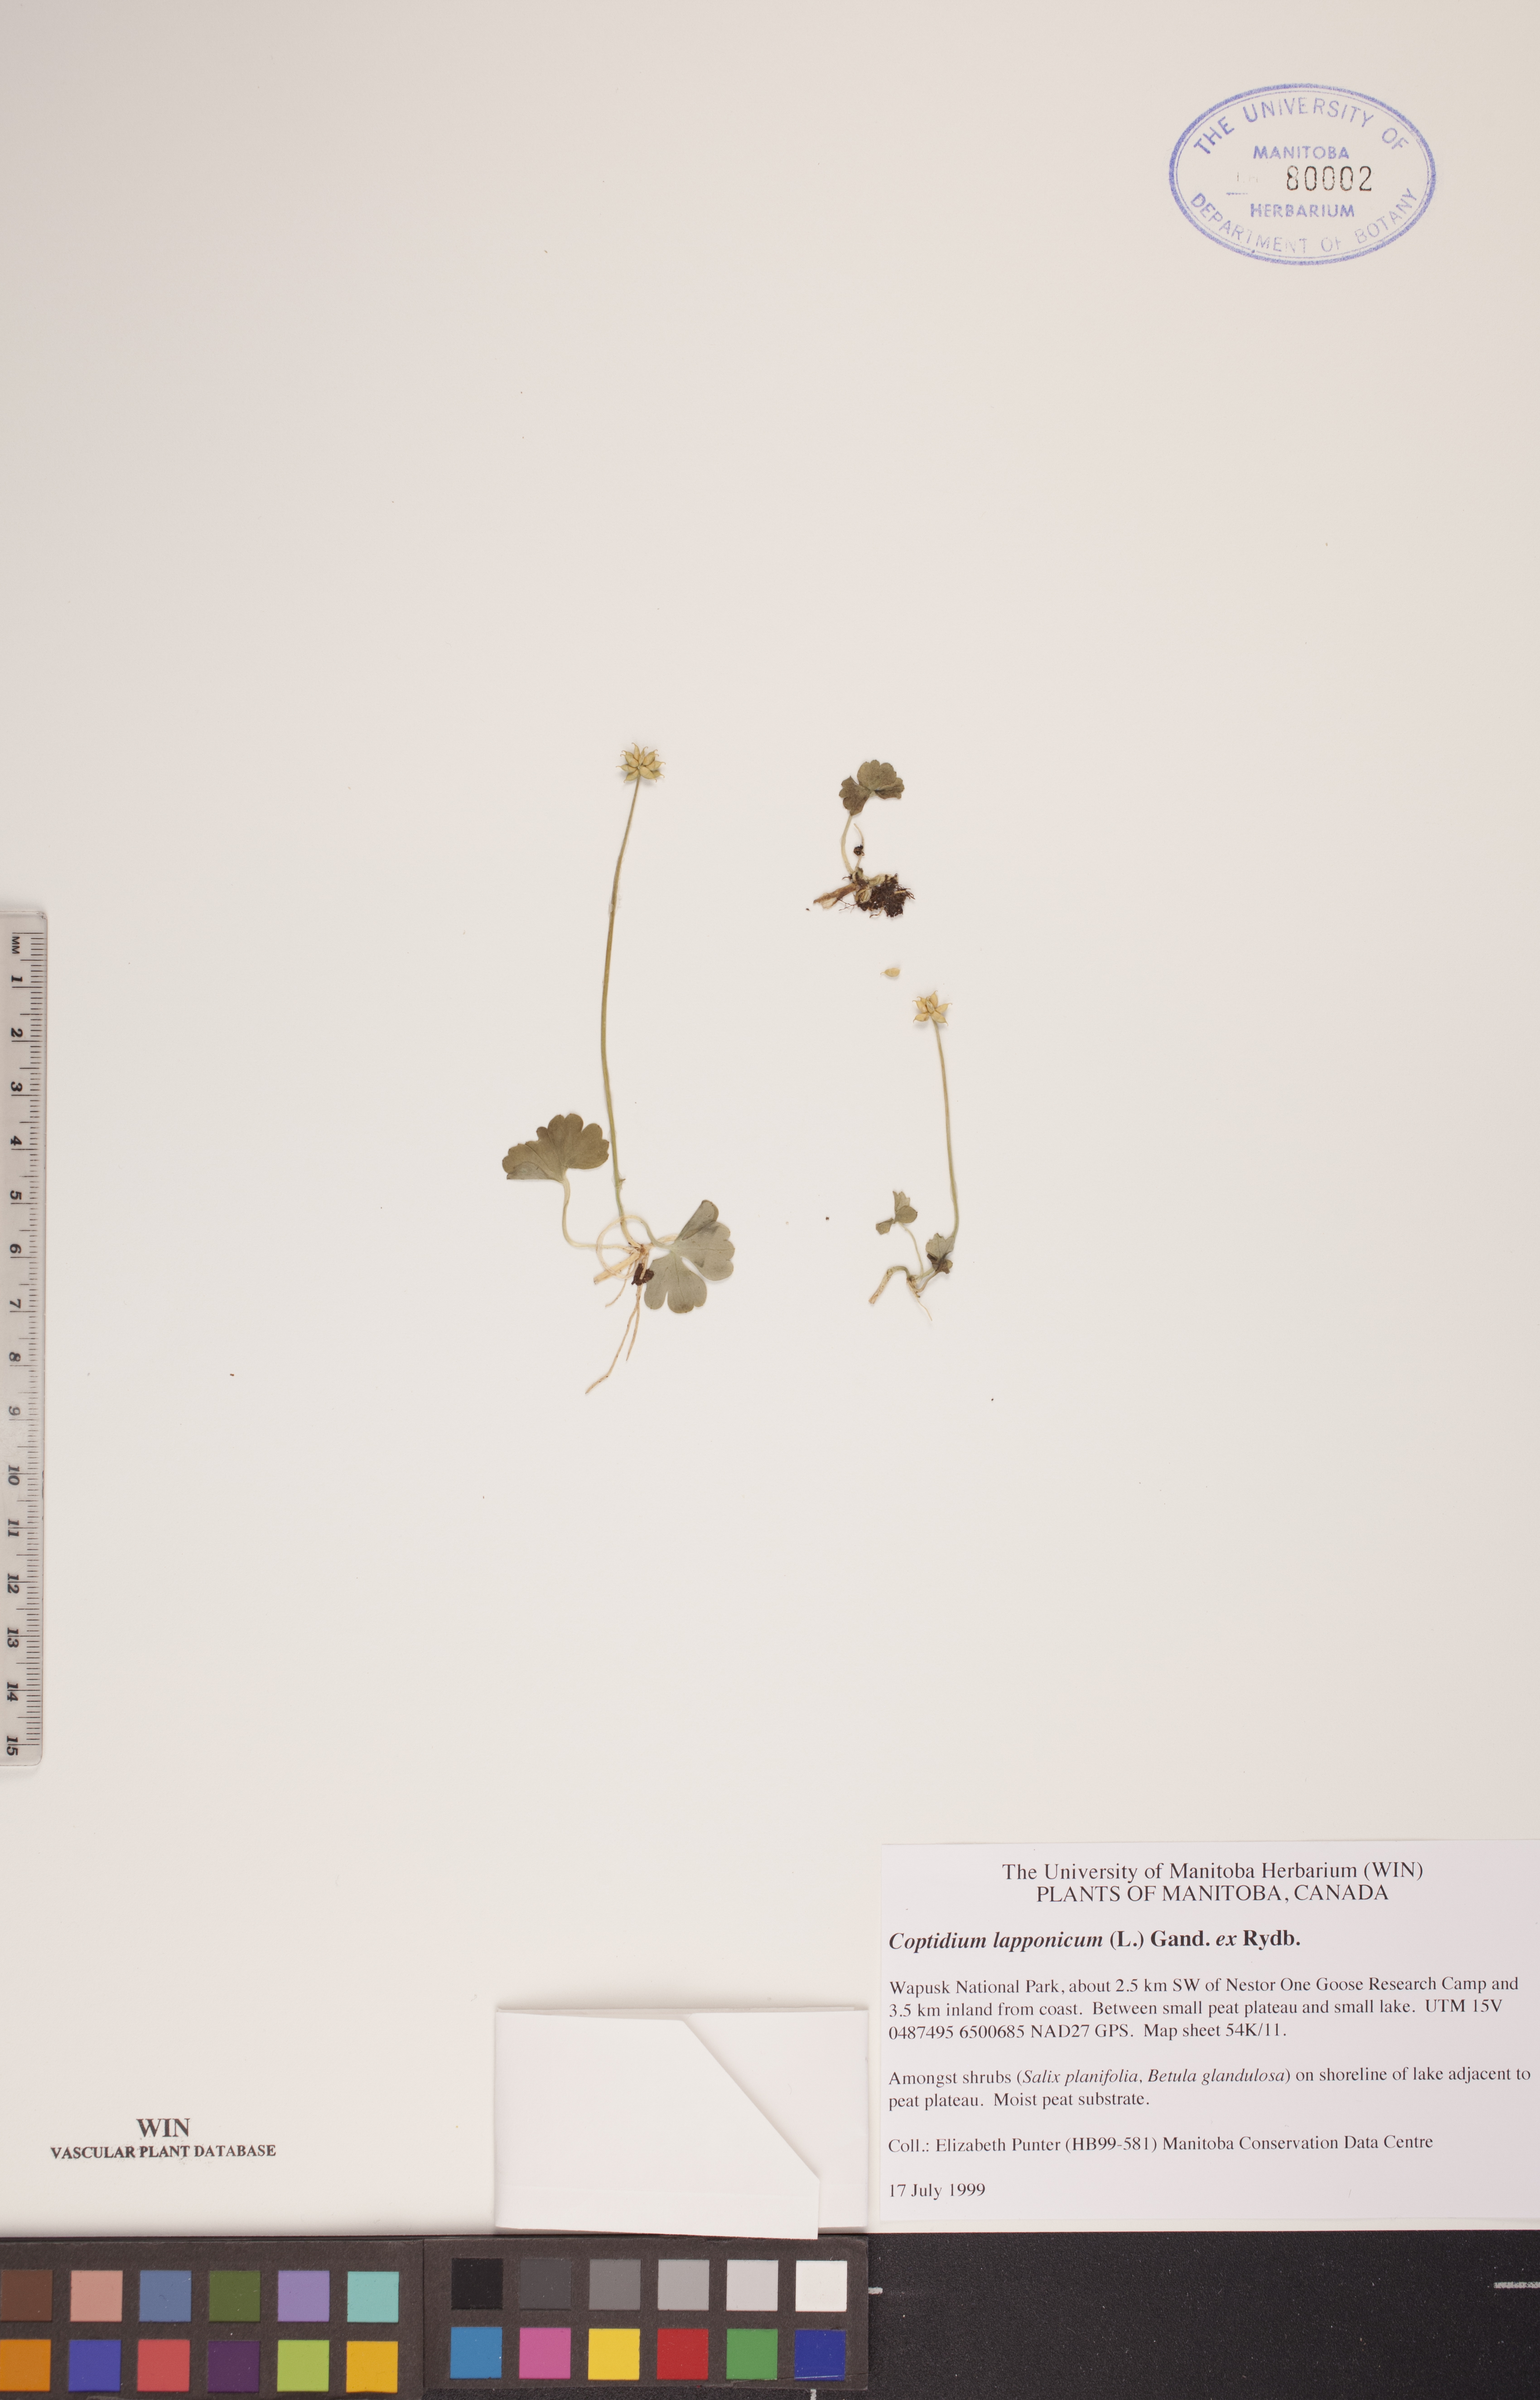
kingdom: Plantae
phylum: Tracheophyta
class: Magnoliopsida
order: Ranunculales
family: Ranunculaceae
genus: Coptidium
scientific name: Coptidium lapponicum
